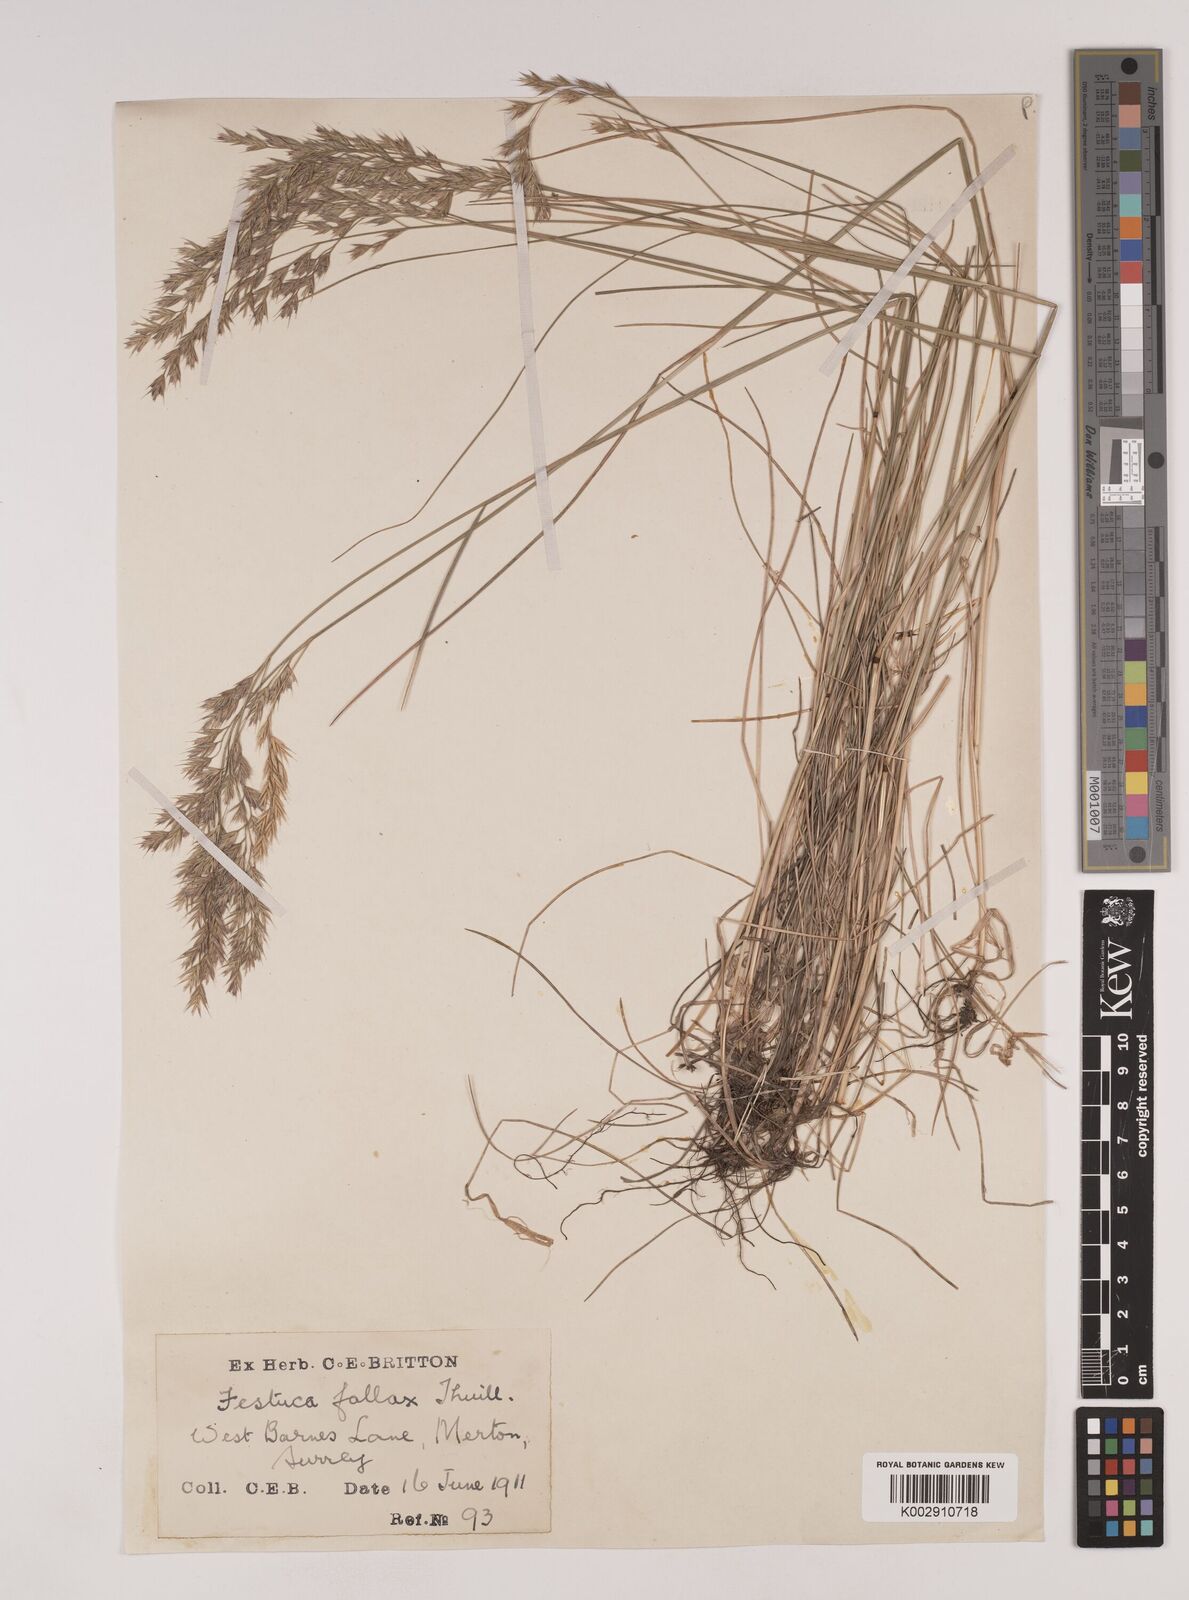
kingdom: Plantae
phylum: Tracheophyta
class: Liliopsida
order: Poales
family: Poaceae
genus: Festuca
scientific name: Festuca rubra
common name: Red fescue
